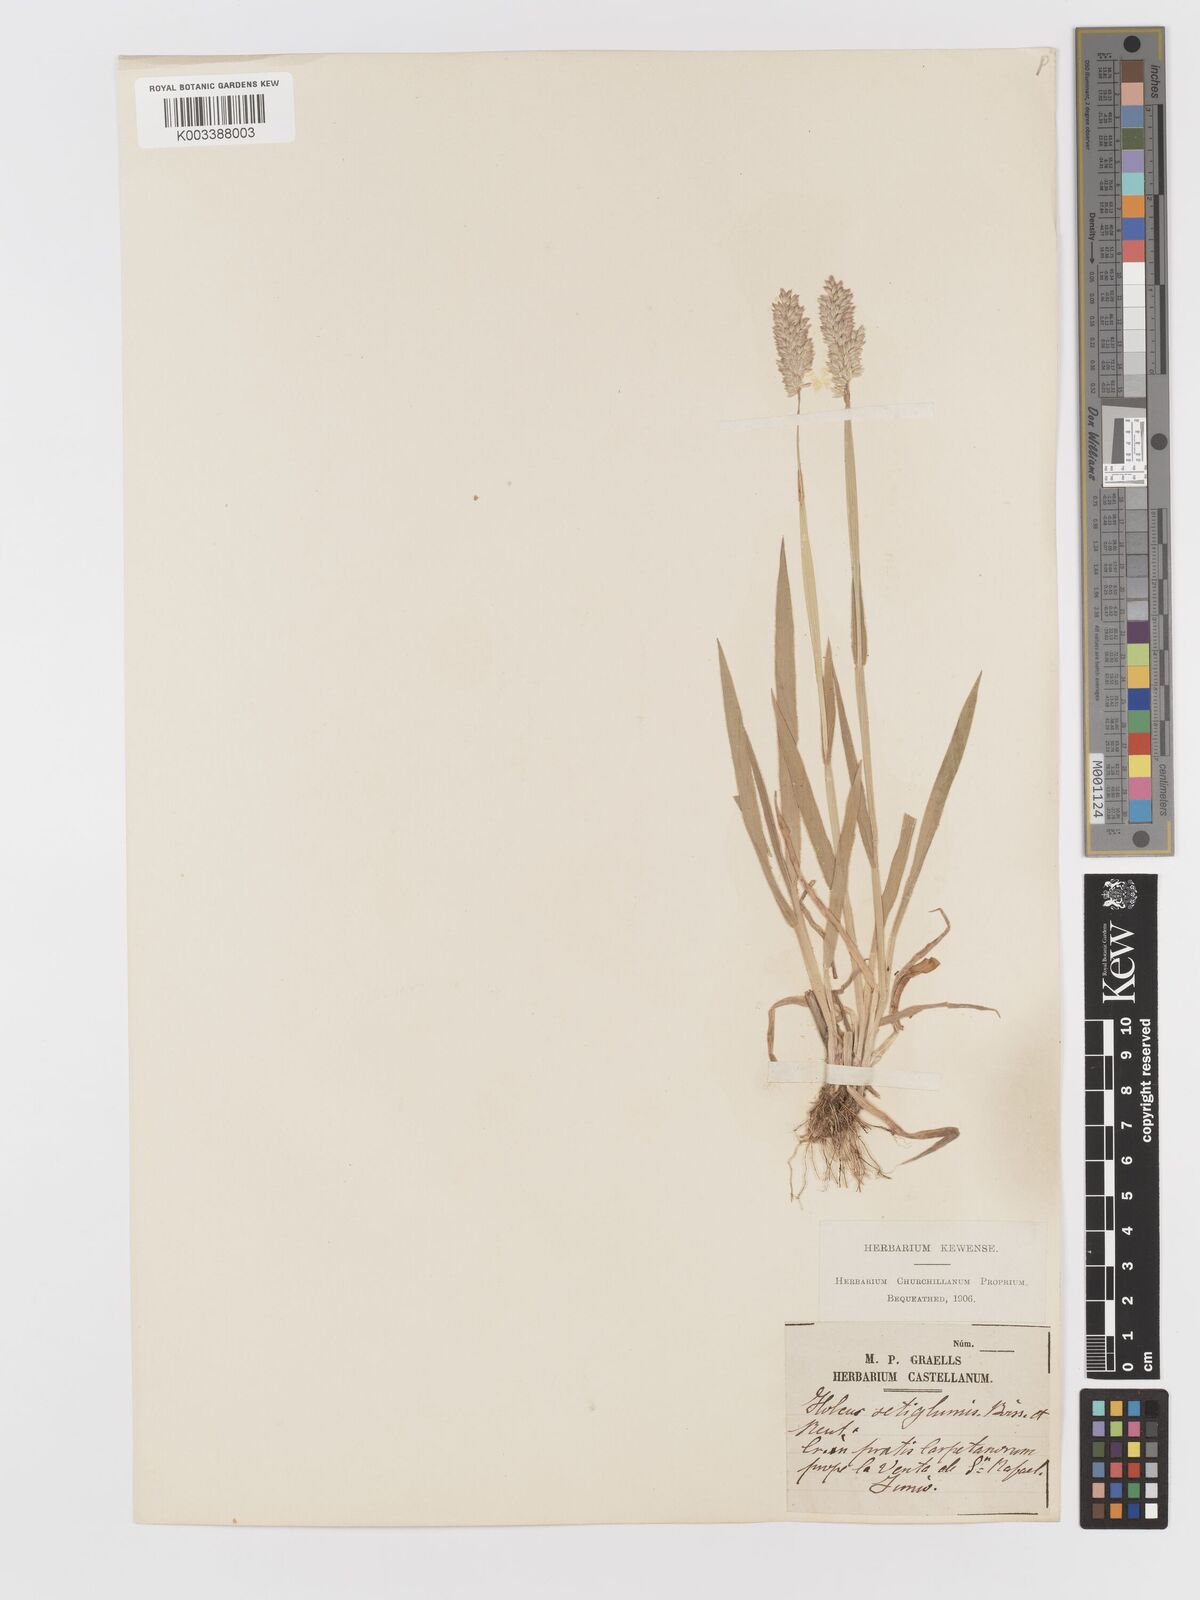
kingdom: Plantae
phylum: Tracheophyta
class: Liliopsida
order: Poales
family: Poaceae
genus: Holcus
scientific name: Holcus lanatus
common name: Yorkshire-fog
